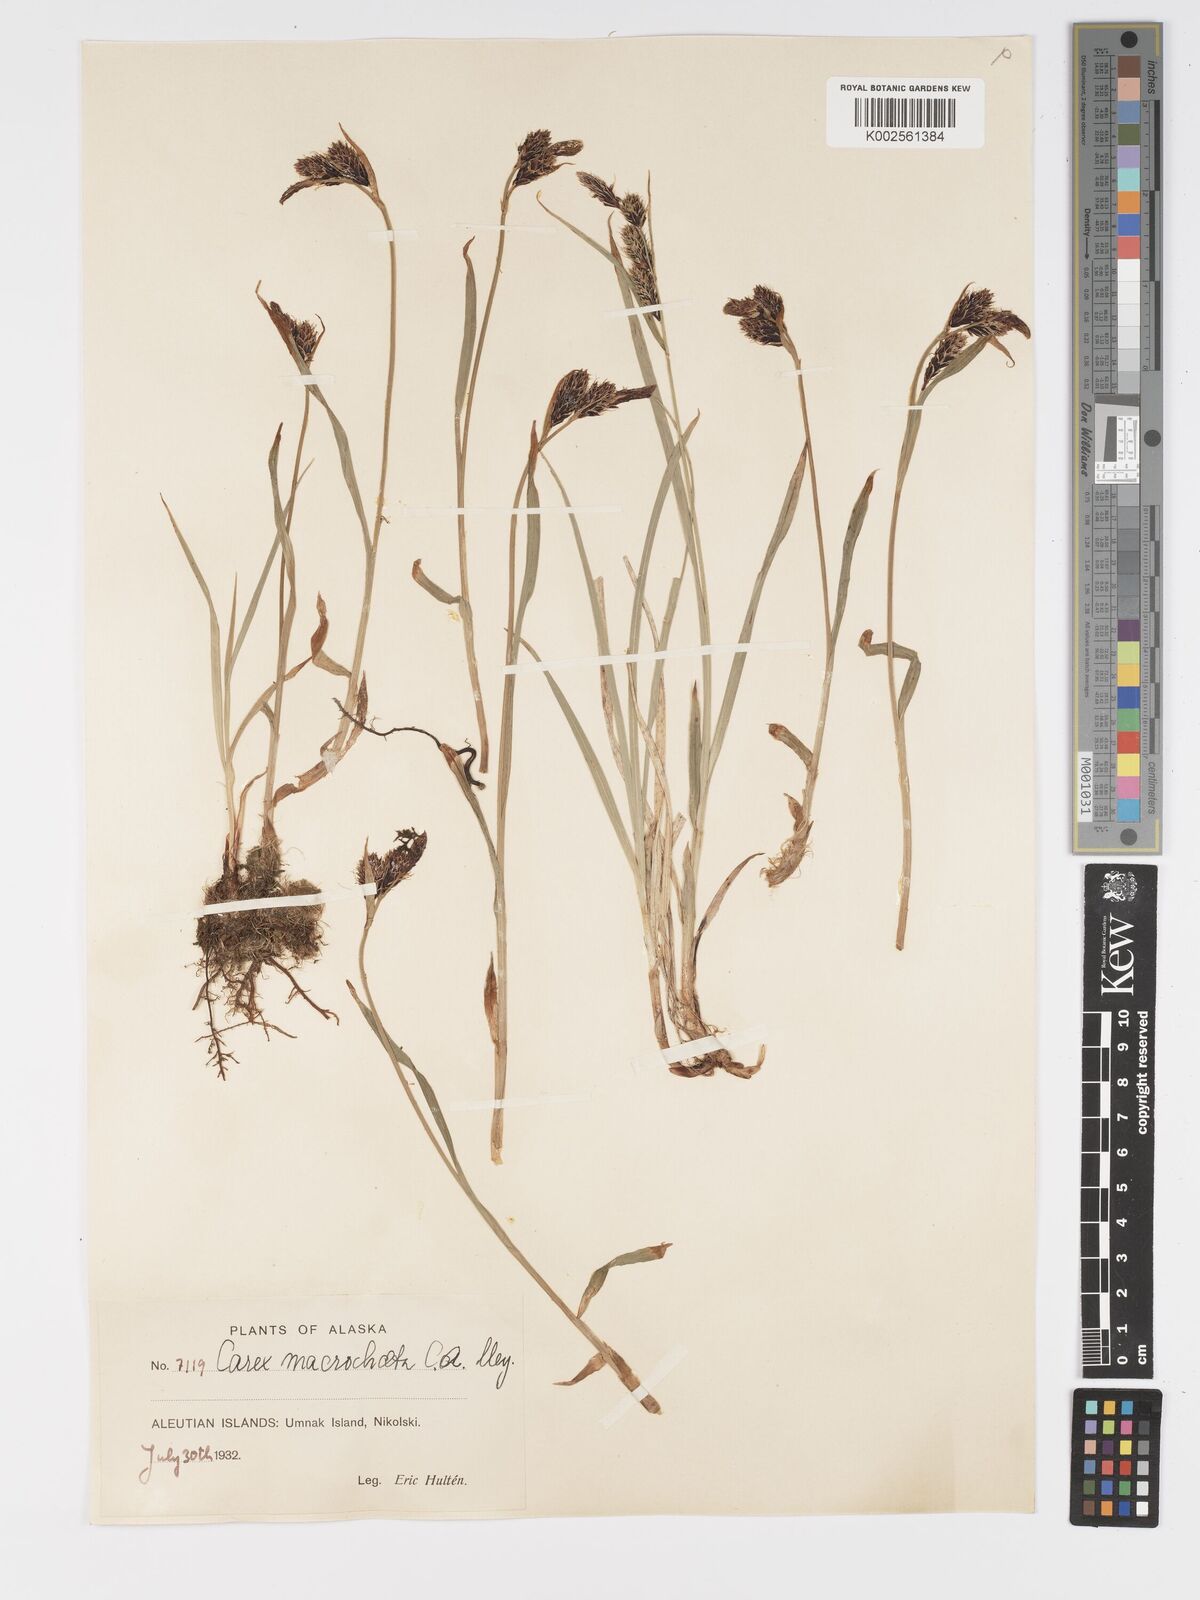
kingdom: Plantae
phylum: Tracheophyta
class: Liliopsida
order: Poales
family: Cyperaceae
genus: Carex
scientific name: Carex macrochaeta
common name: Alaska large awn sedge
